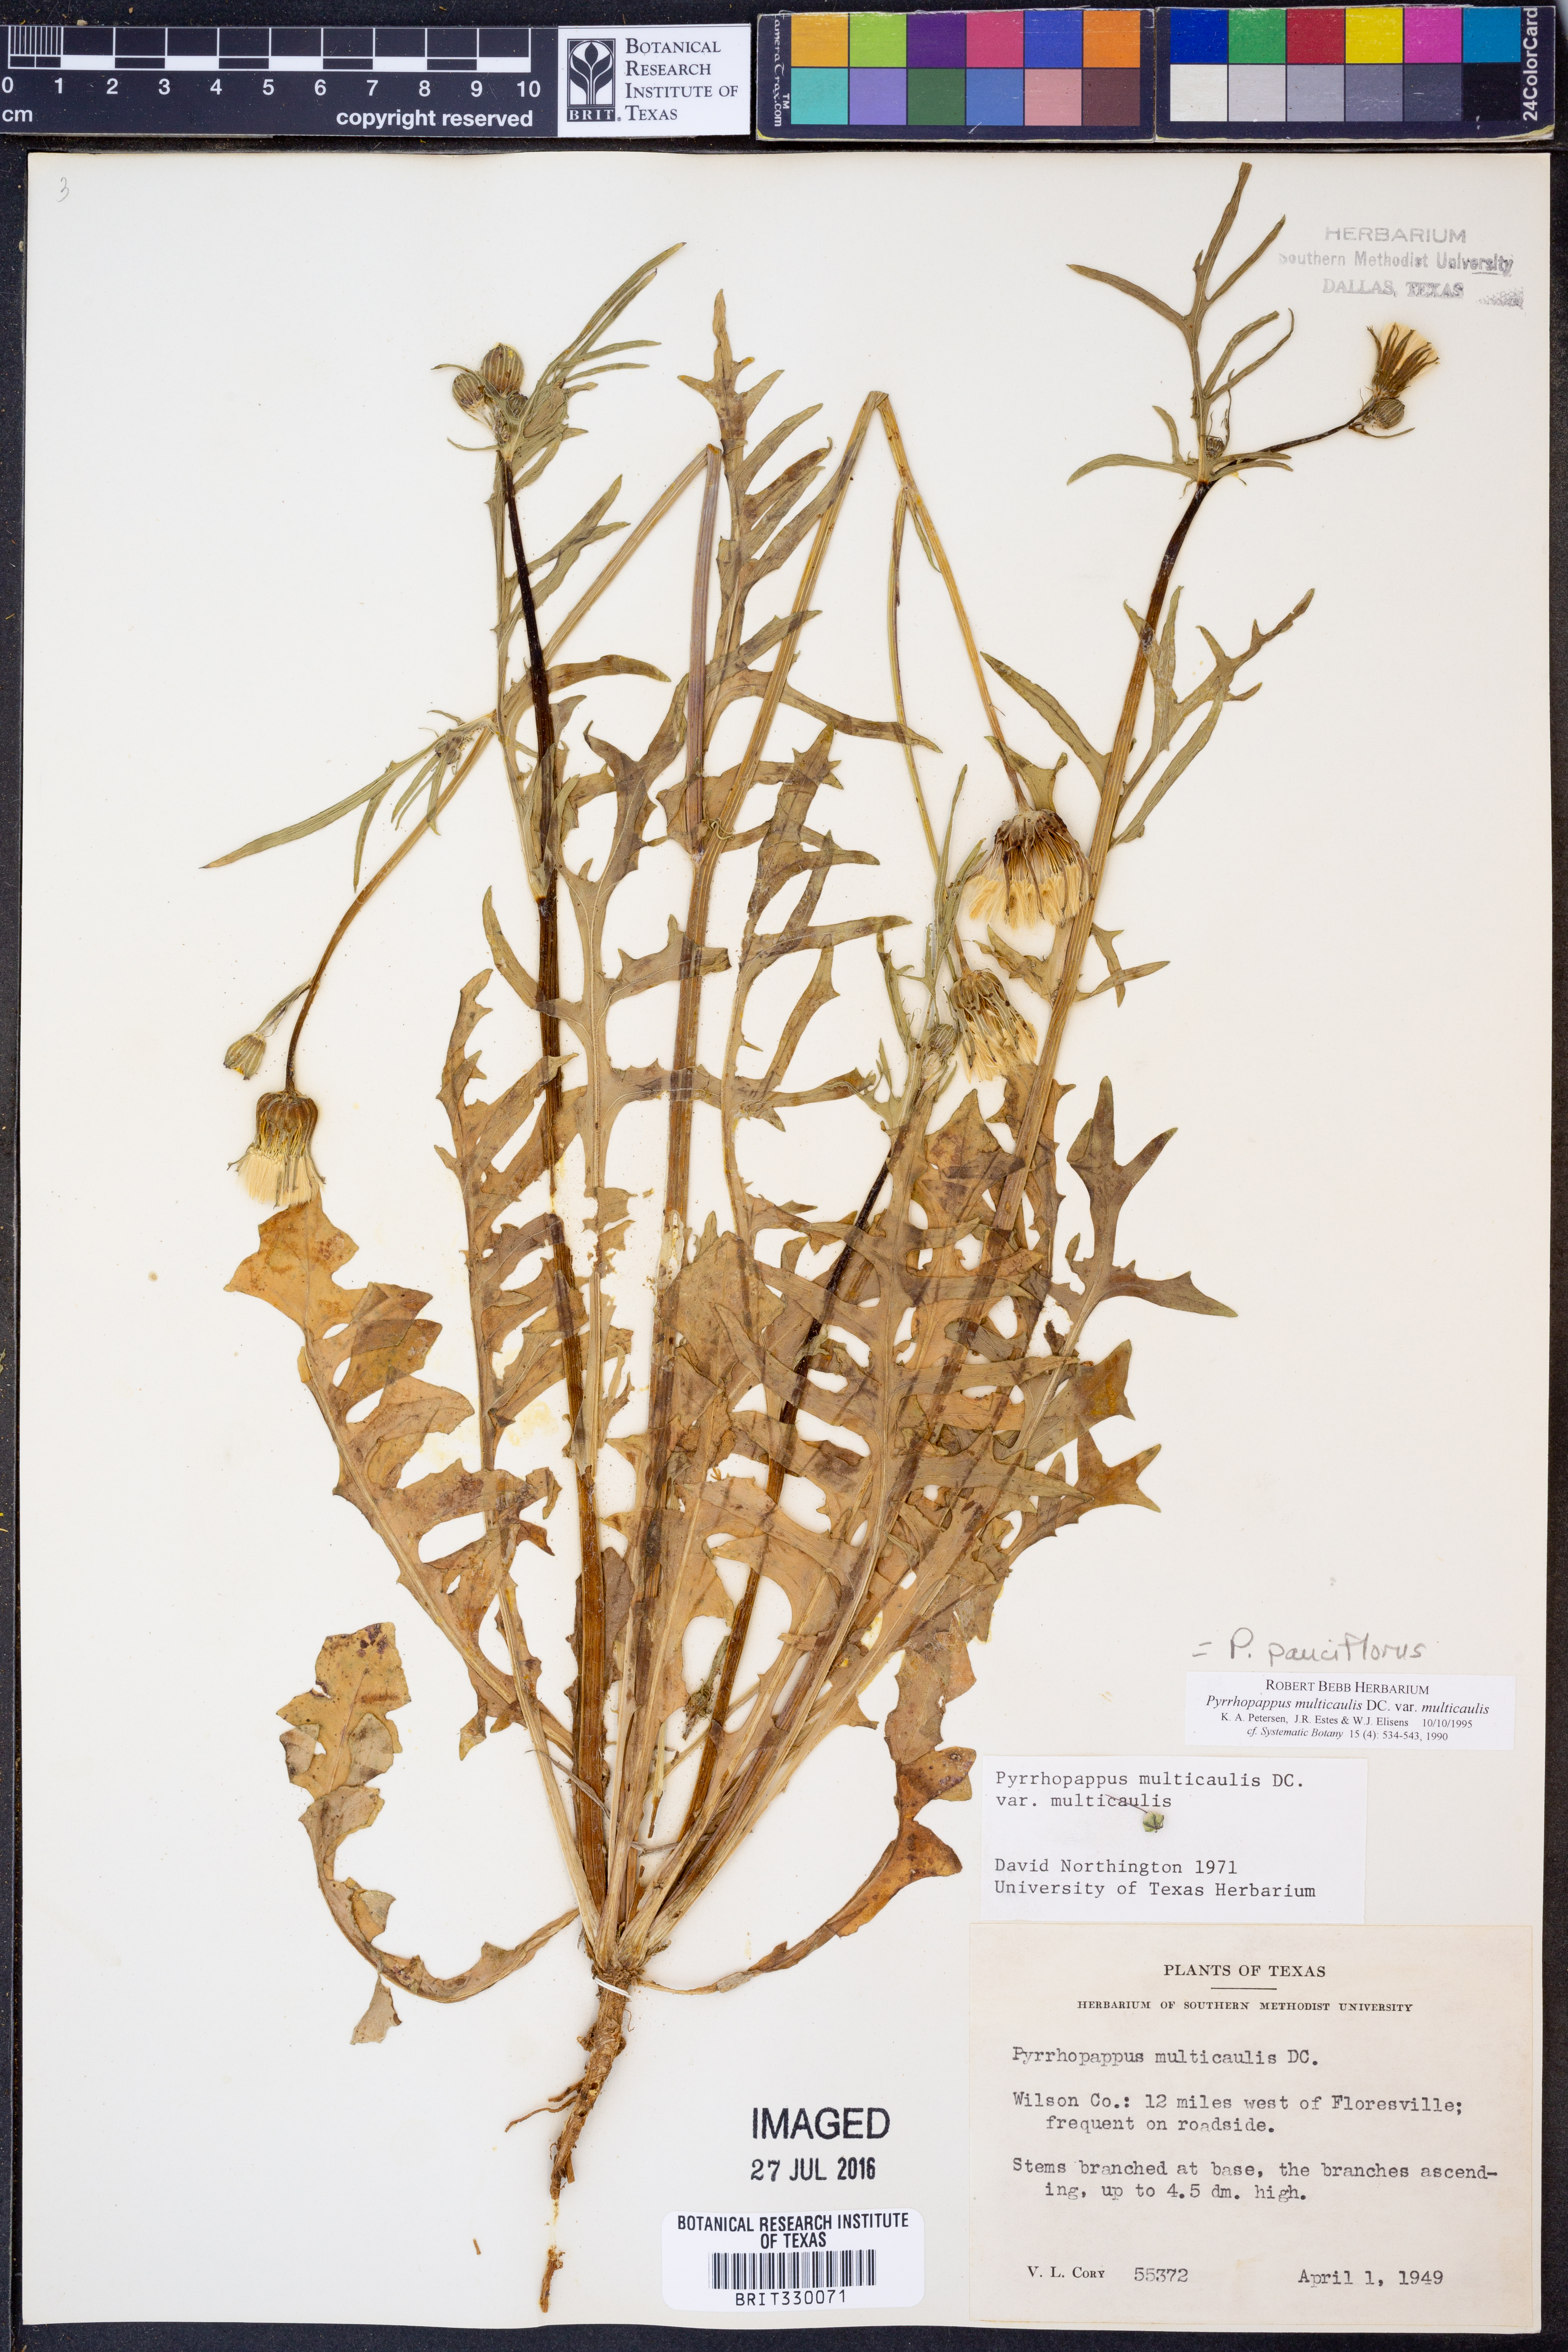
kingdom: Plantae
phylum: Tracheophyta
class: Magnoliopsida
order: Asterales
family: Asteraceae
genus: Pyrrhopappus
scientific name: Pyrrhopappus pauciflorus
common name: Texas false dandelion
